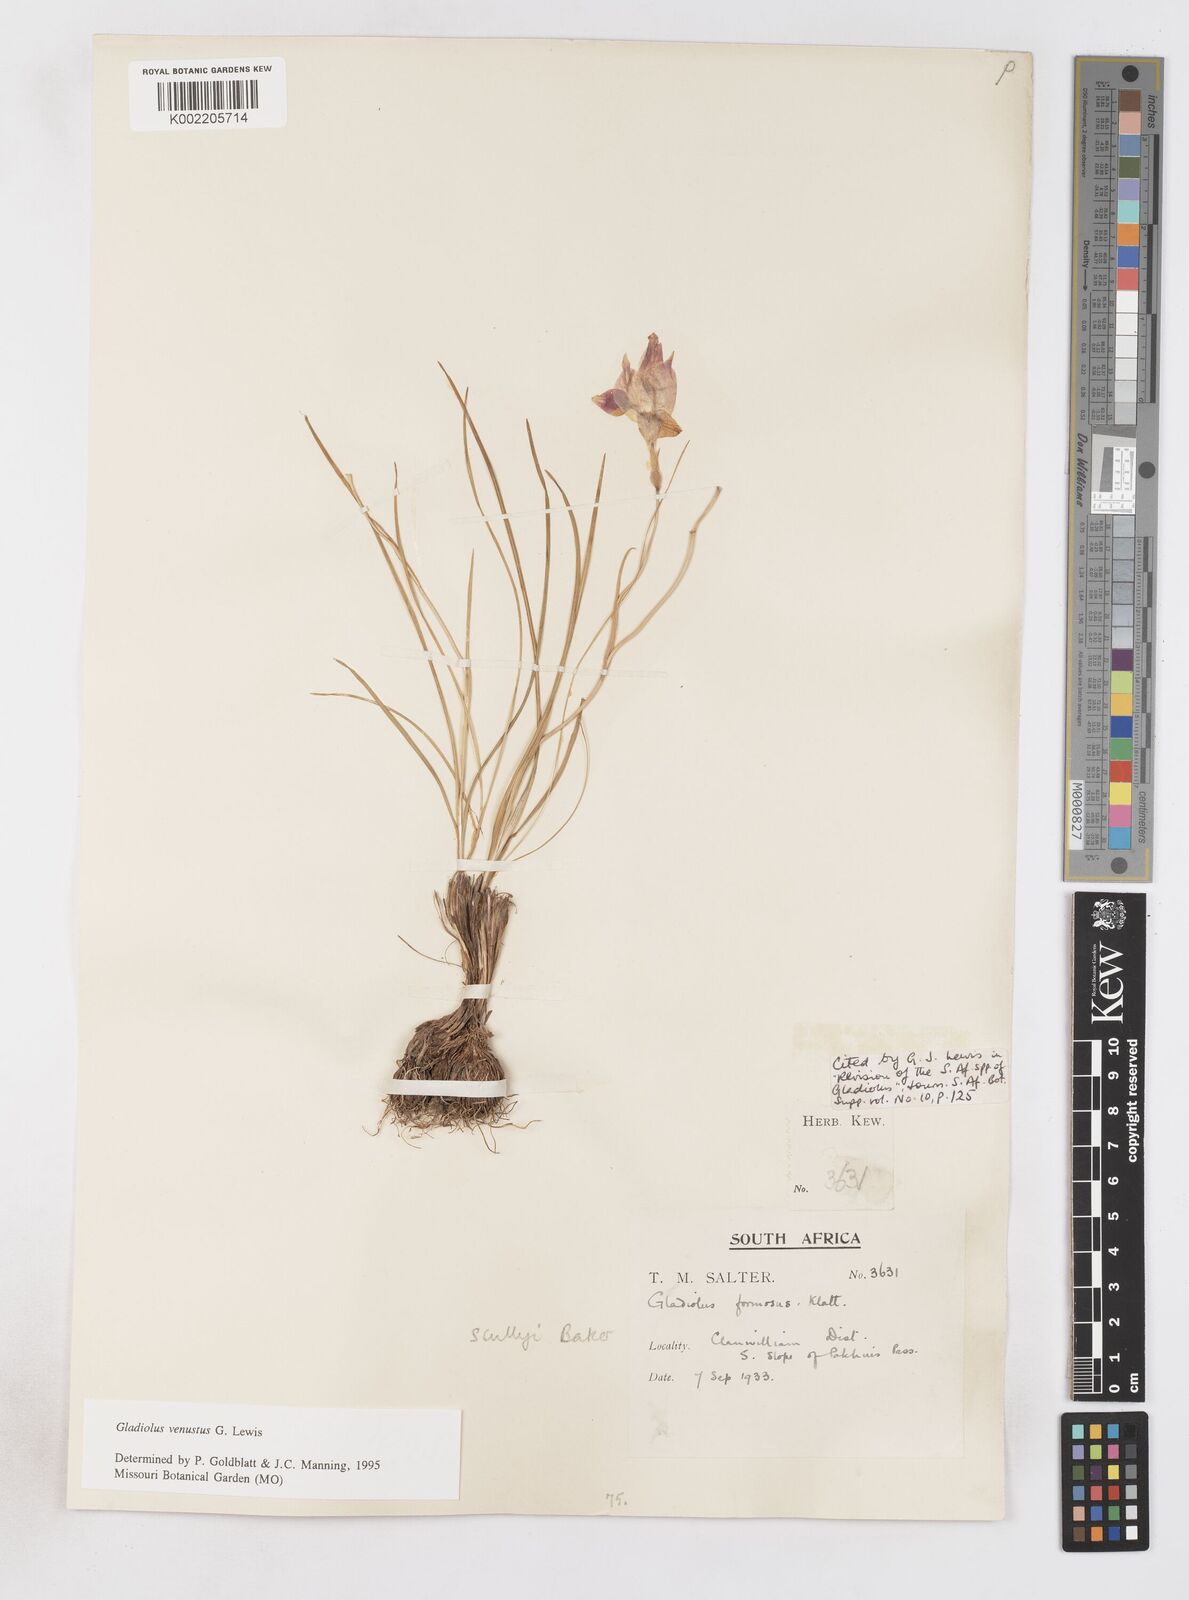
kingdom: Plantae
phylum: Tracheophyta
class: Liliopsida
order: Asparagales
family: Iridaceae
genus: Gladiolus
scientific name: Gladiolus venustus
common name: Purple kalkoentjie
